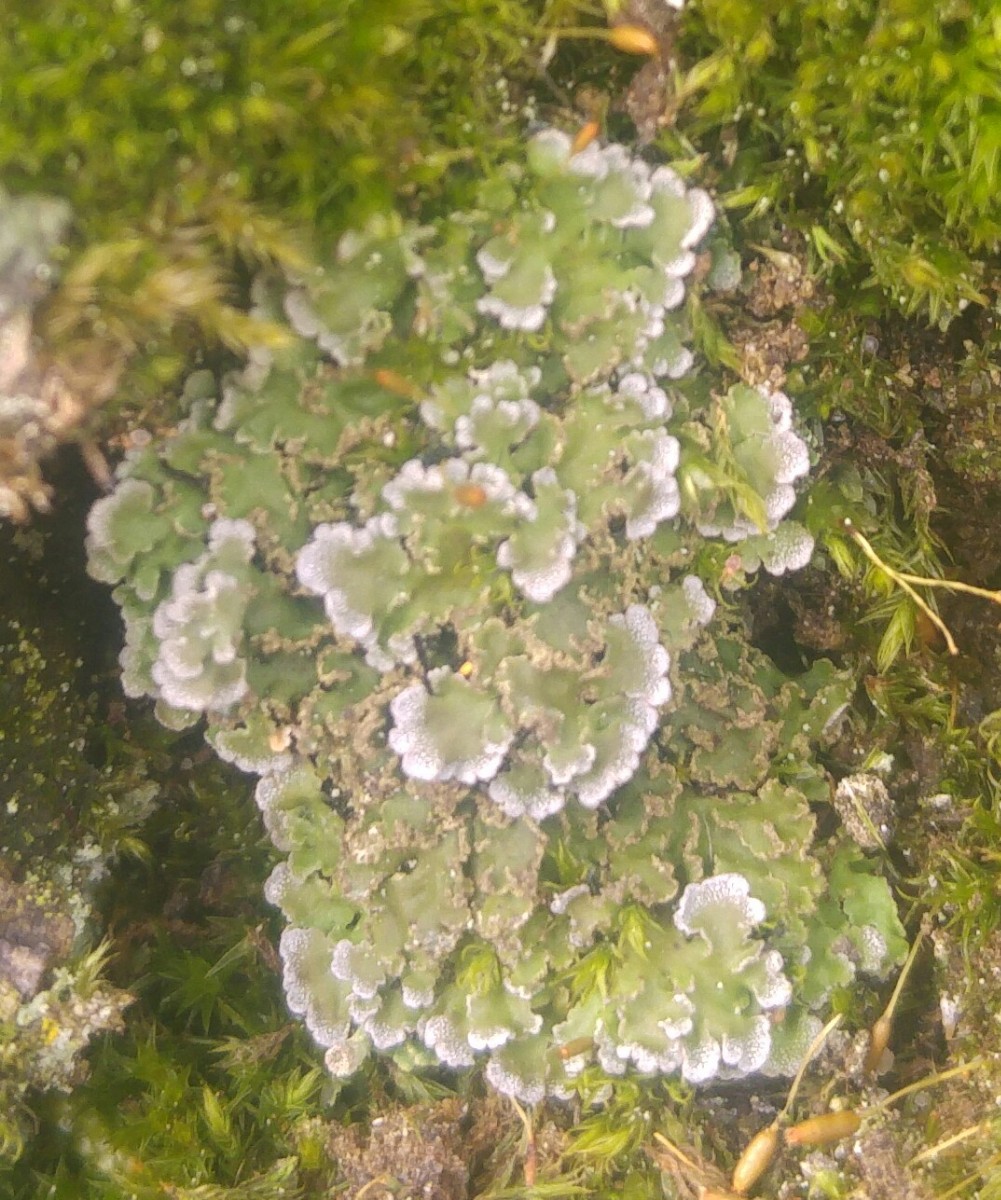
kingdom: Fungi
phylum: Ascomycota
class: Lecanoromycetes
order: Caliciales
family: Physciaceae
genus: Physconia
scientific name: Physconia
